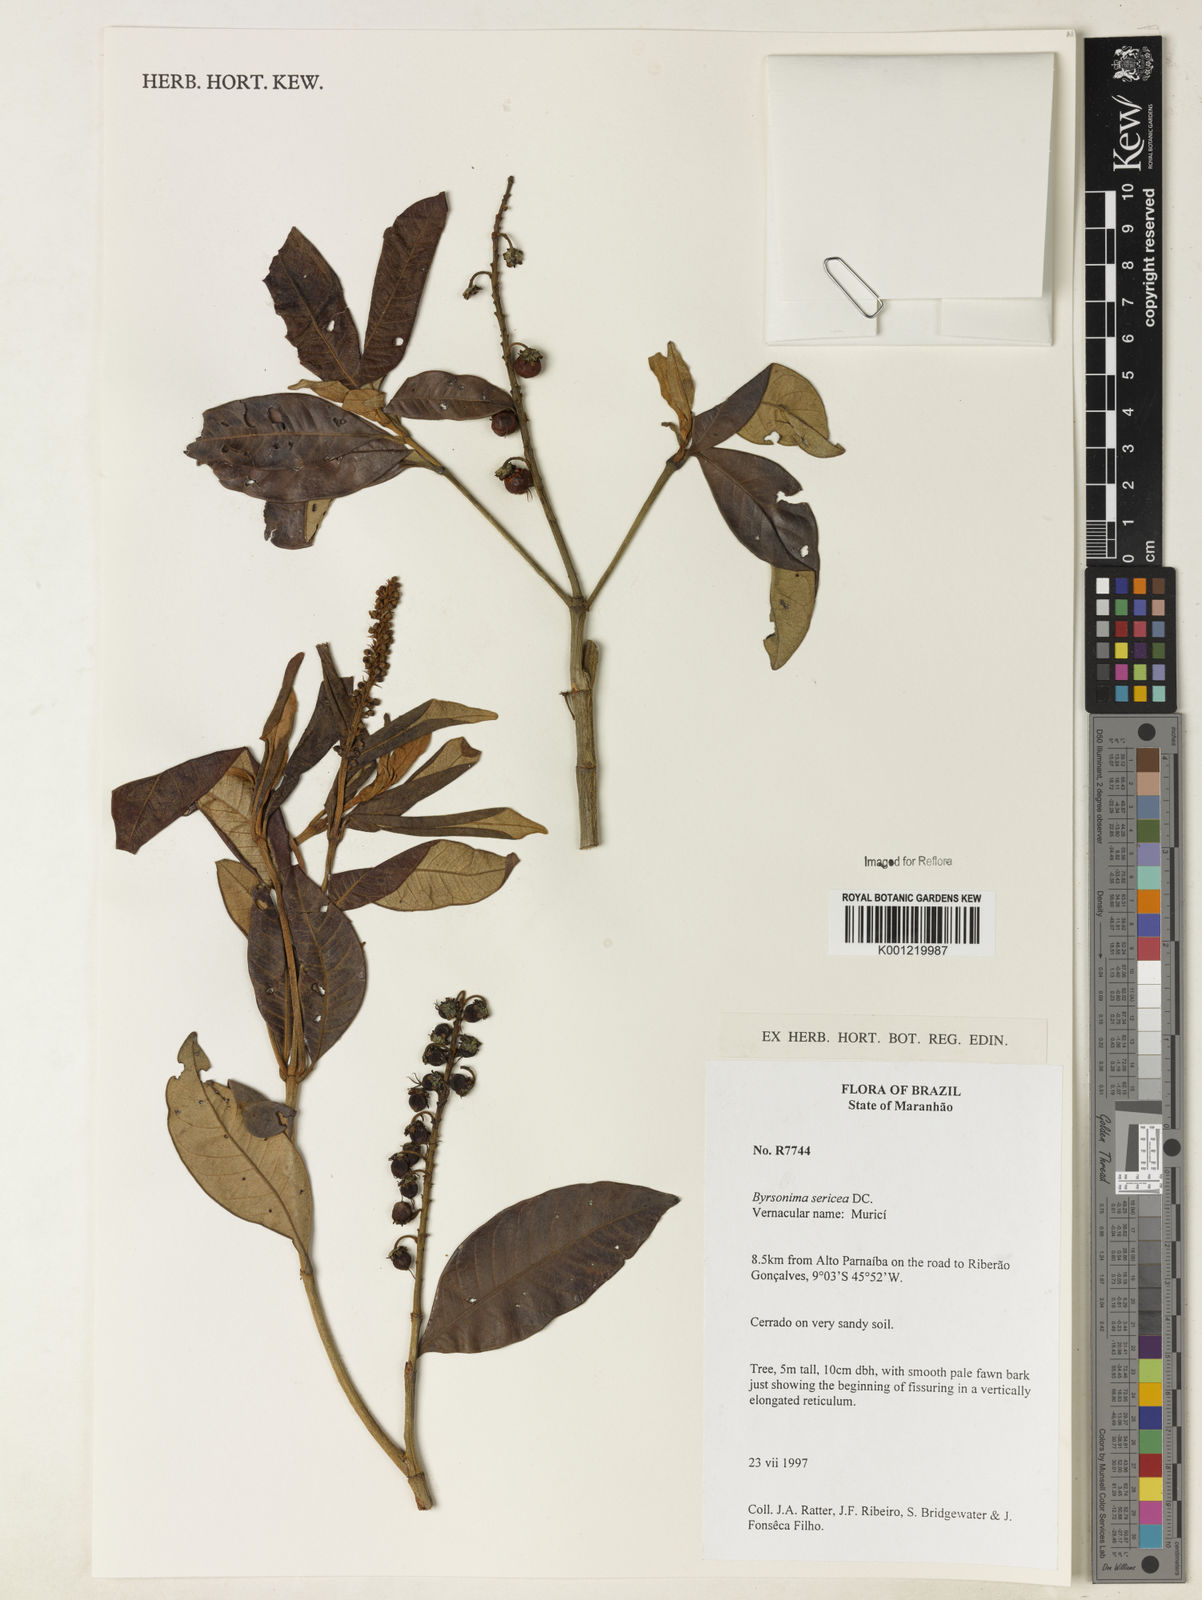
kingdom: Plantae
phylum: Tracheophyta
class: Magnoliopsida
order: Malpighiales
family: Malpighiaceae
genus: Byrsonima
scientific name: Byrsonima sericea
